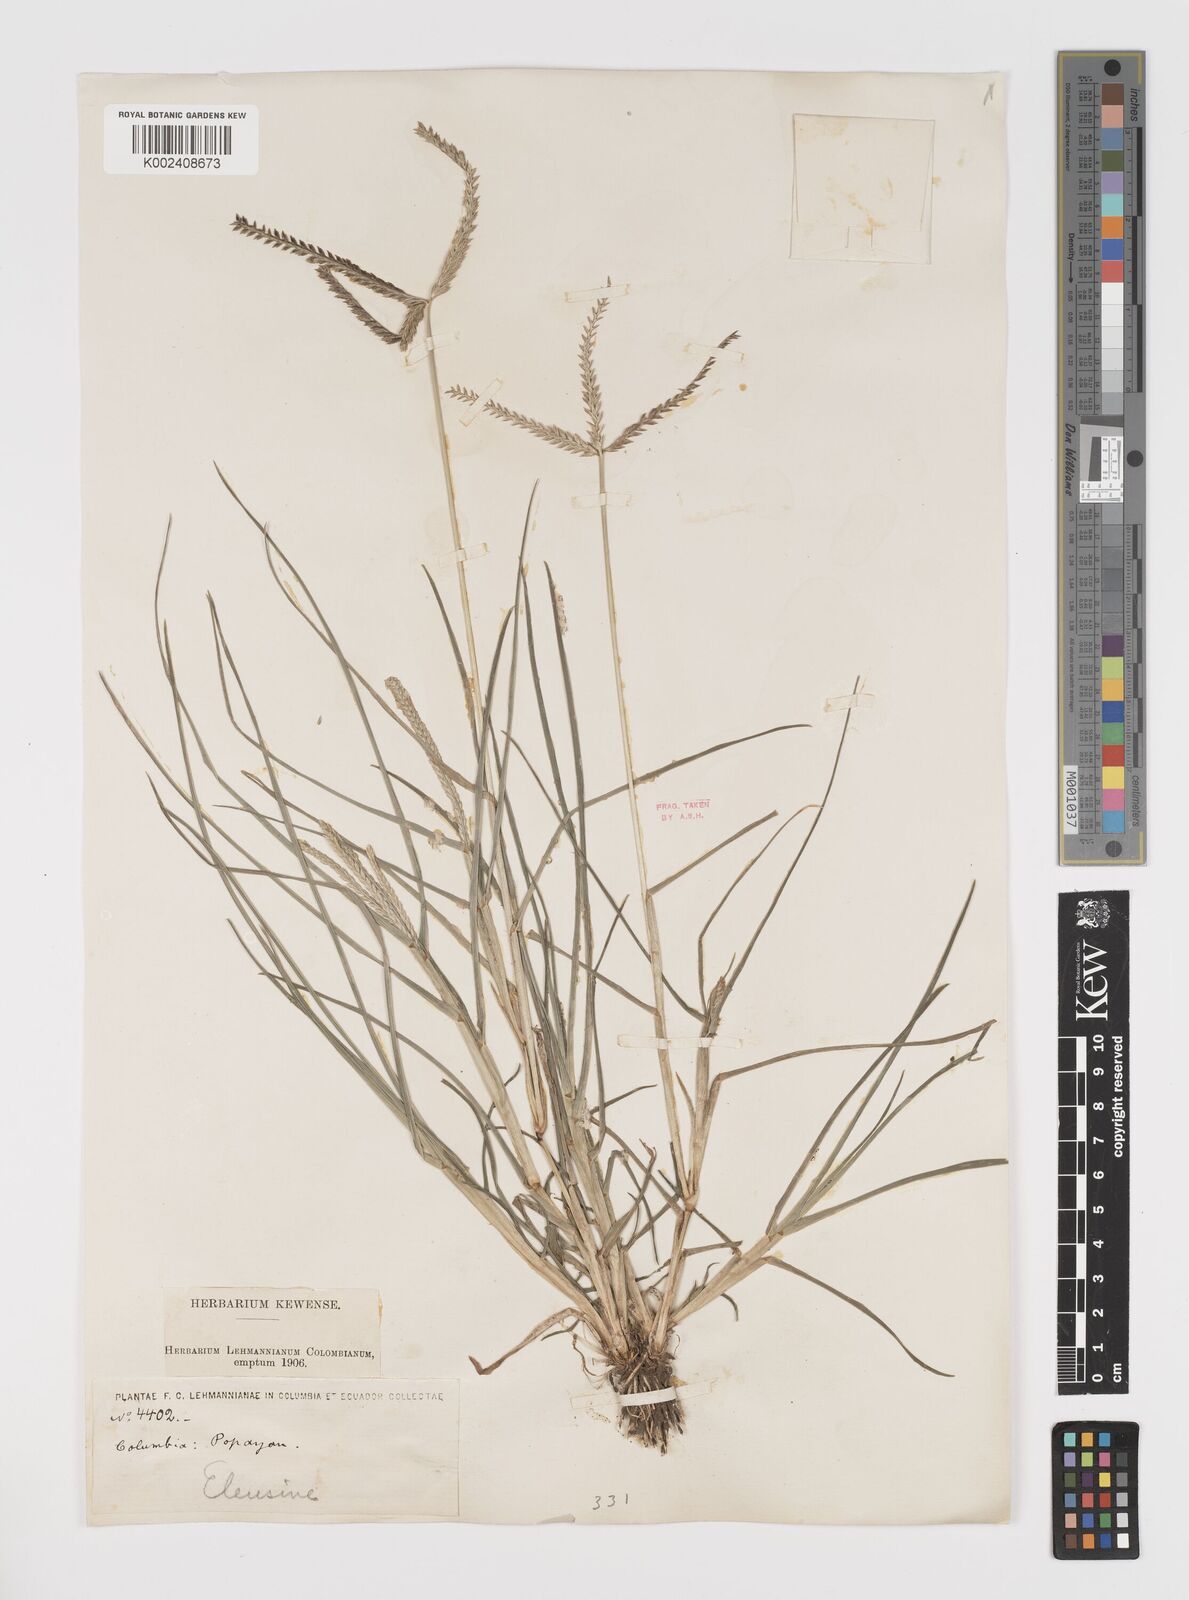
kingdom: Plantae
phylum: Tracheophyta
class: Liliopsida
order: Poales
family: Poaceae
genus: Eleusine
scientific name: Eleusine indica
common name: Yard-grass
